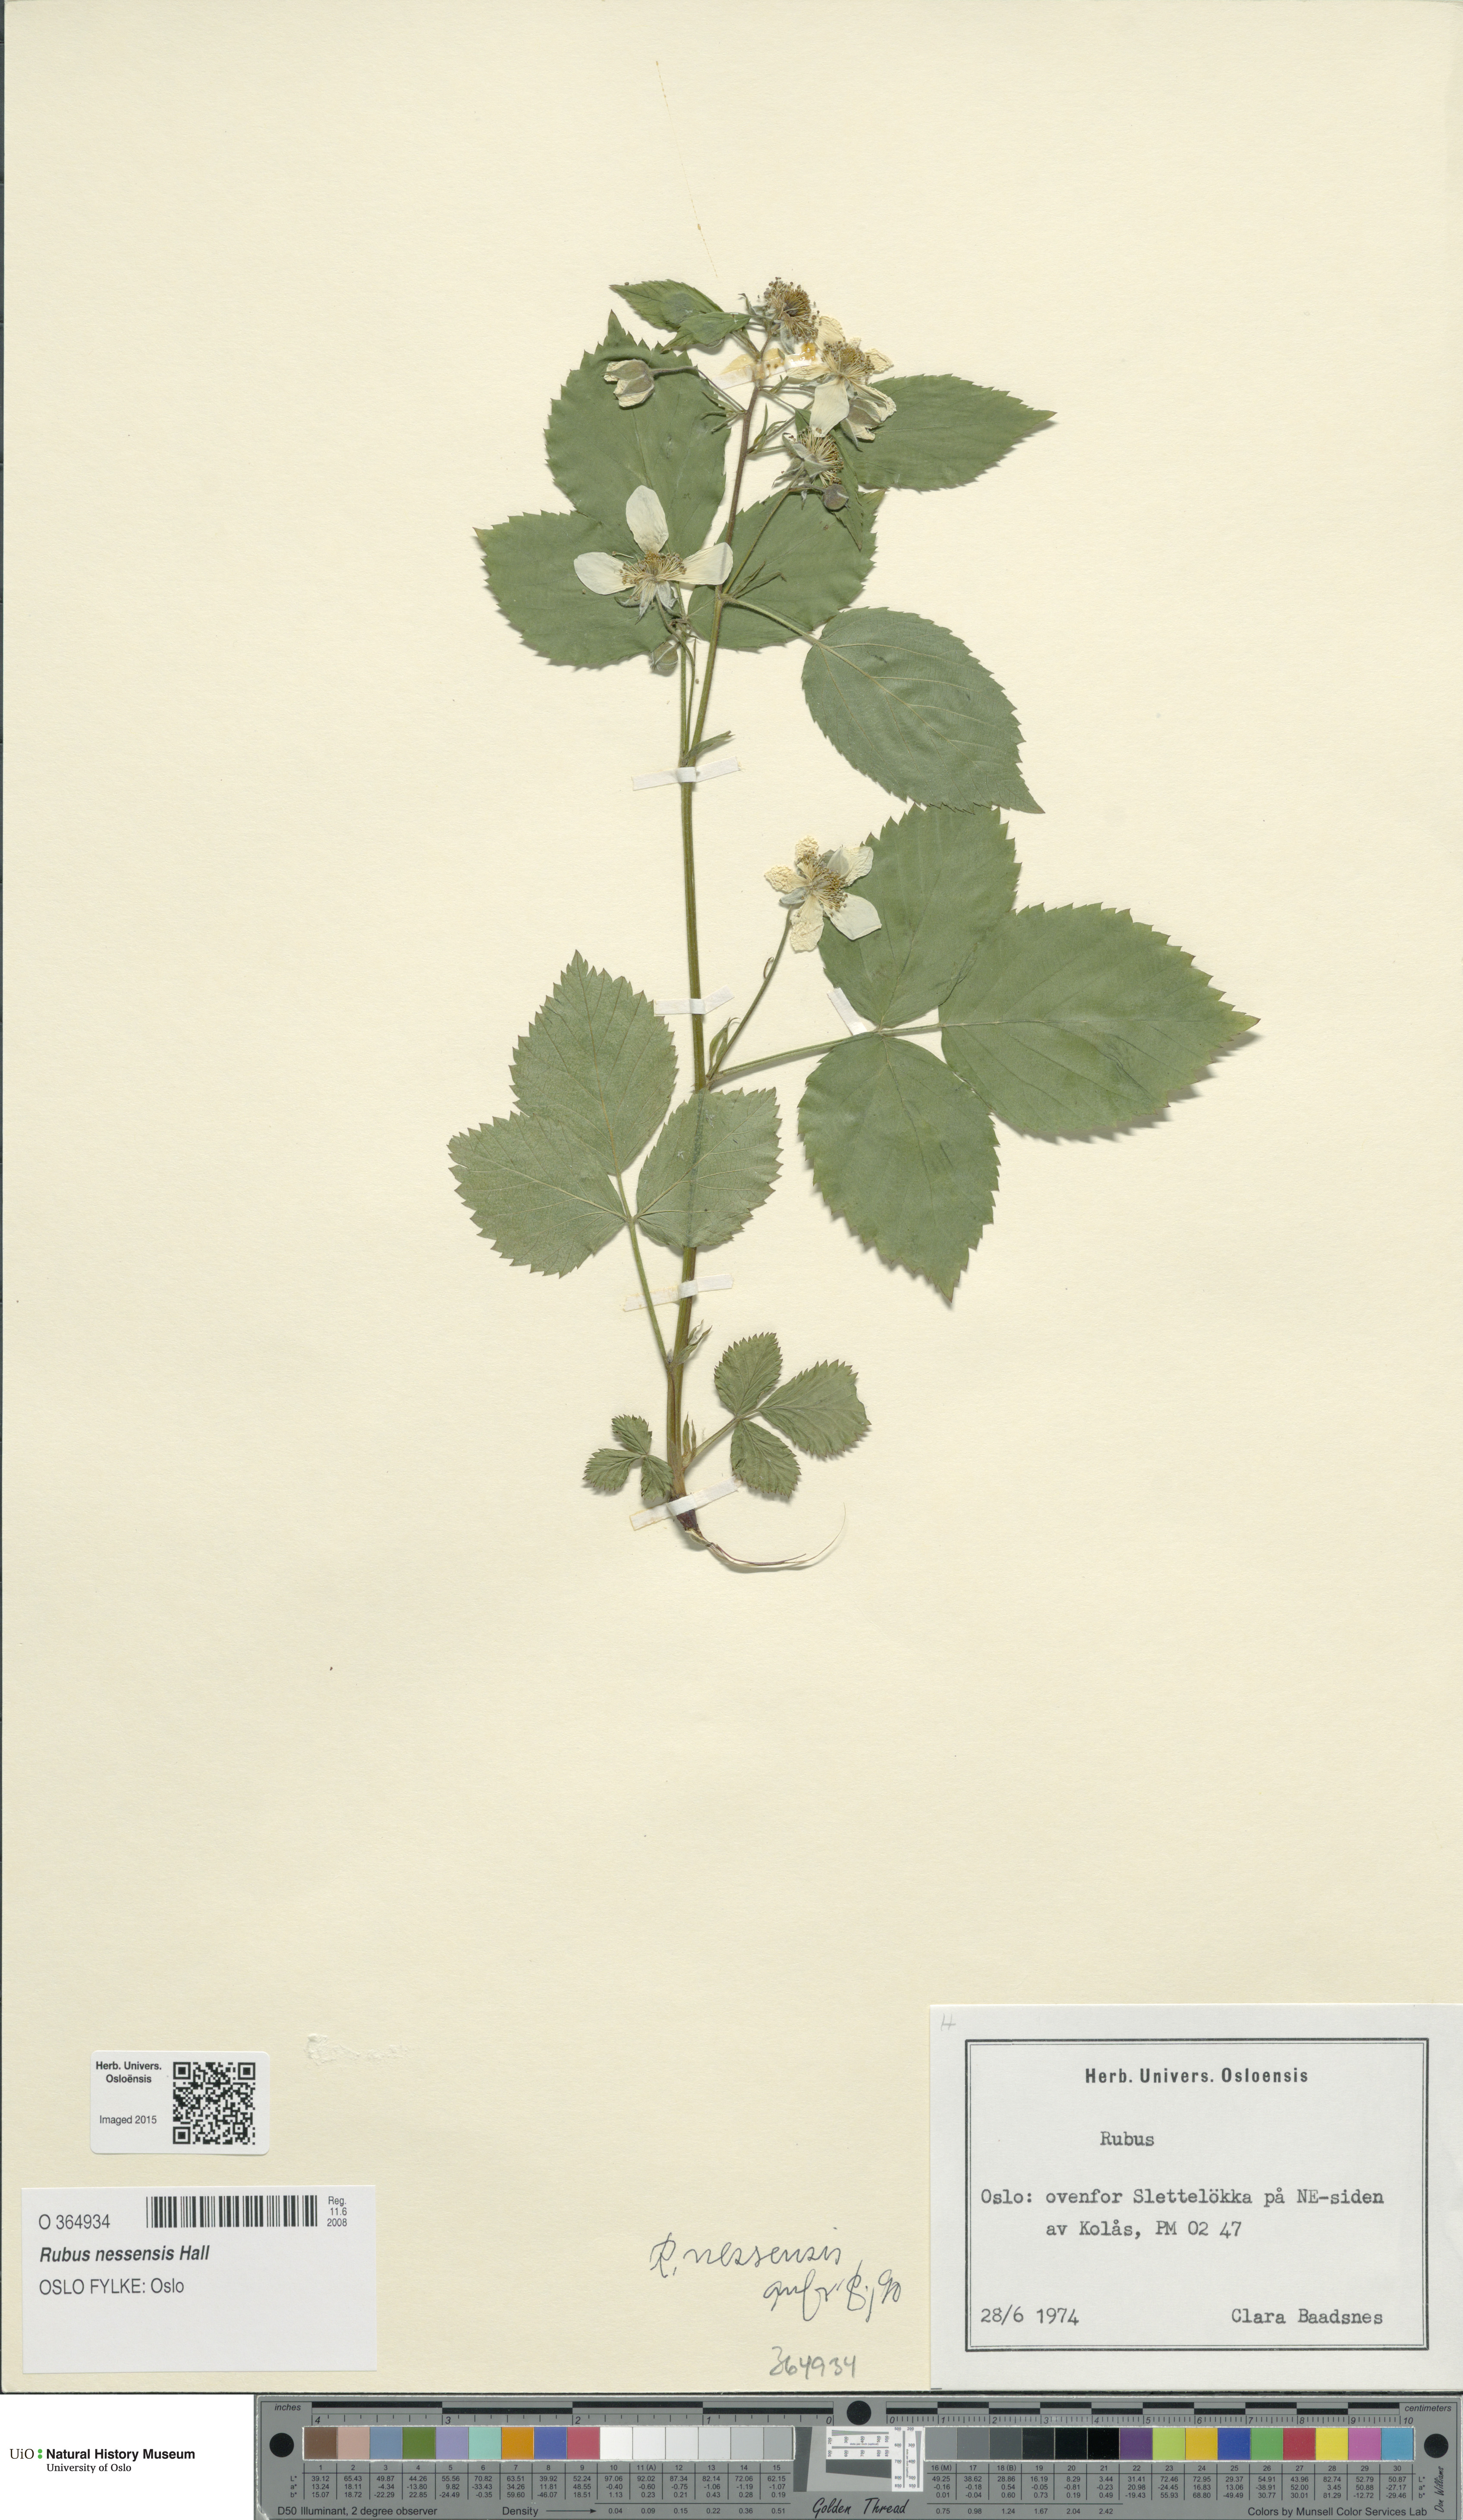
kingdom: Plantae
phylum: Tracheophyta
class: Magnoliopsida
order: Rosales
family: Rosaceae
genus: Rubus
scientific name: Rubus polonicus
